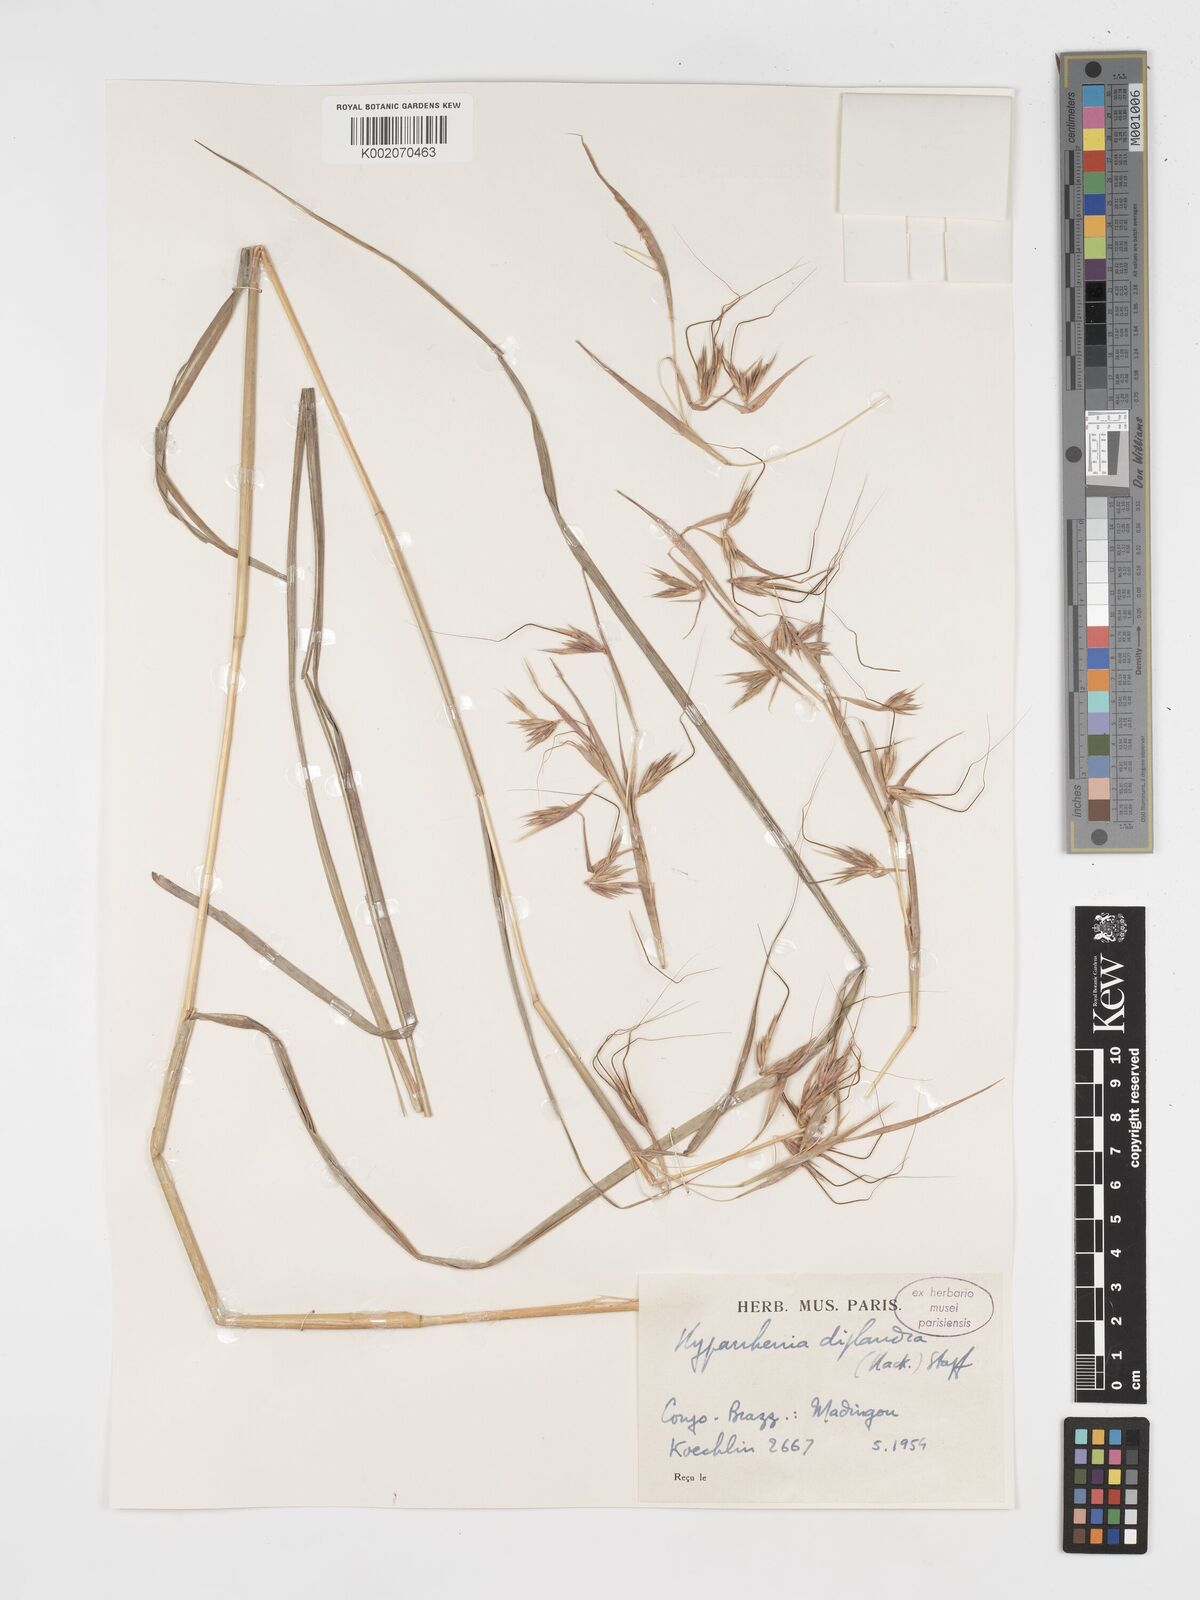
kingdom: Plantae
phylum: Tracheophyta
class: Liliopsida
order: Poales
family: Poaceae
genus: Hyparrhenia
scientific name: Hyparrhenia diplandra
